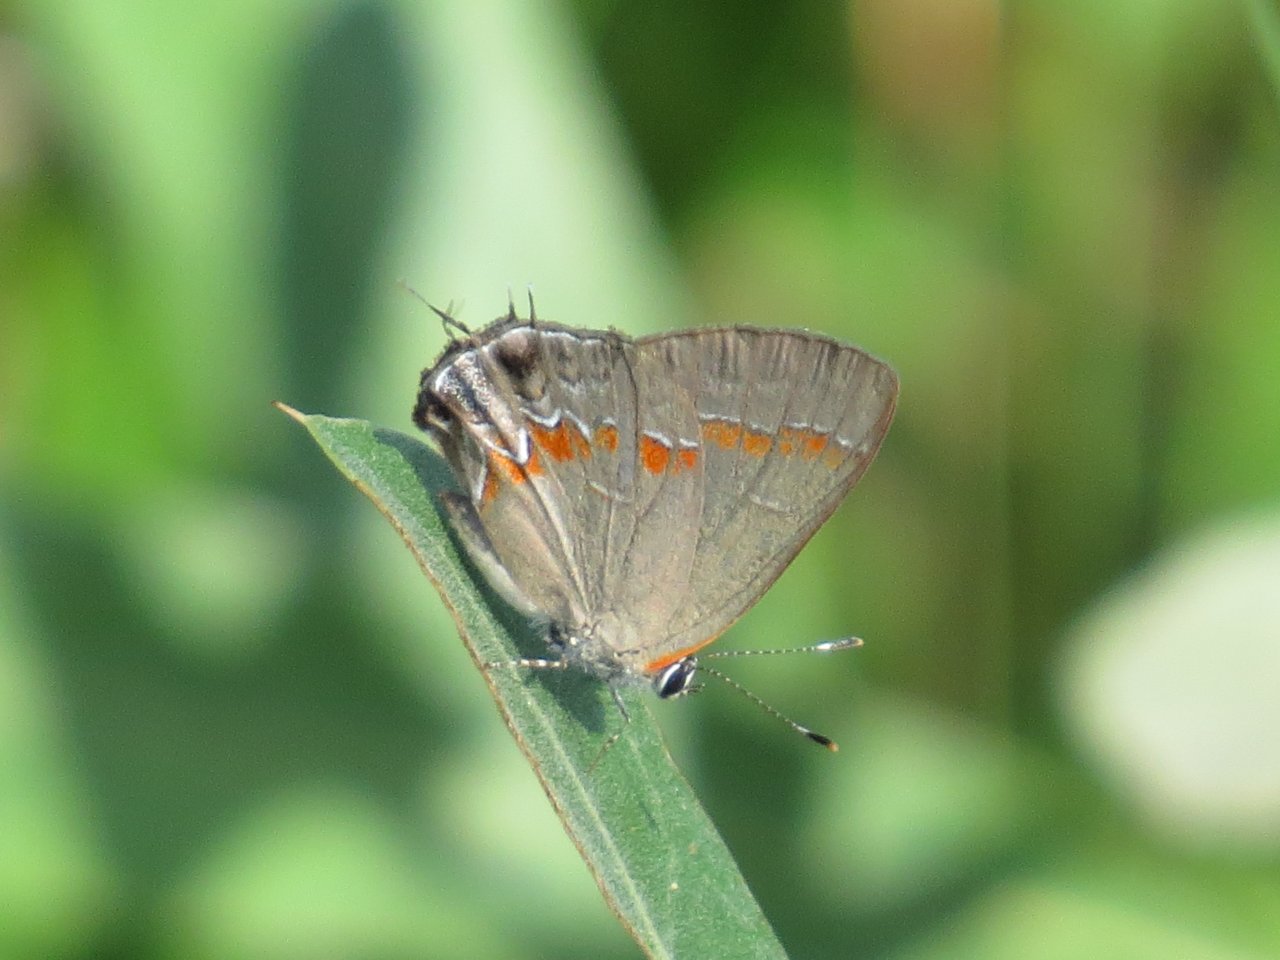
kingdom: Animalia
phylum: Arthropoda
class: Insecta
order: Lepidoptera
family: Lycaenidae
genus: Calycopis
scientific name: Calycopis cecrops
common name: Red-banded Hairstreak
